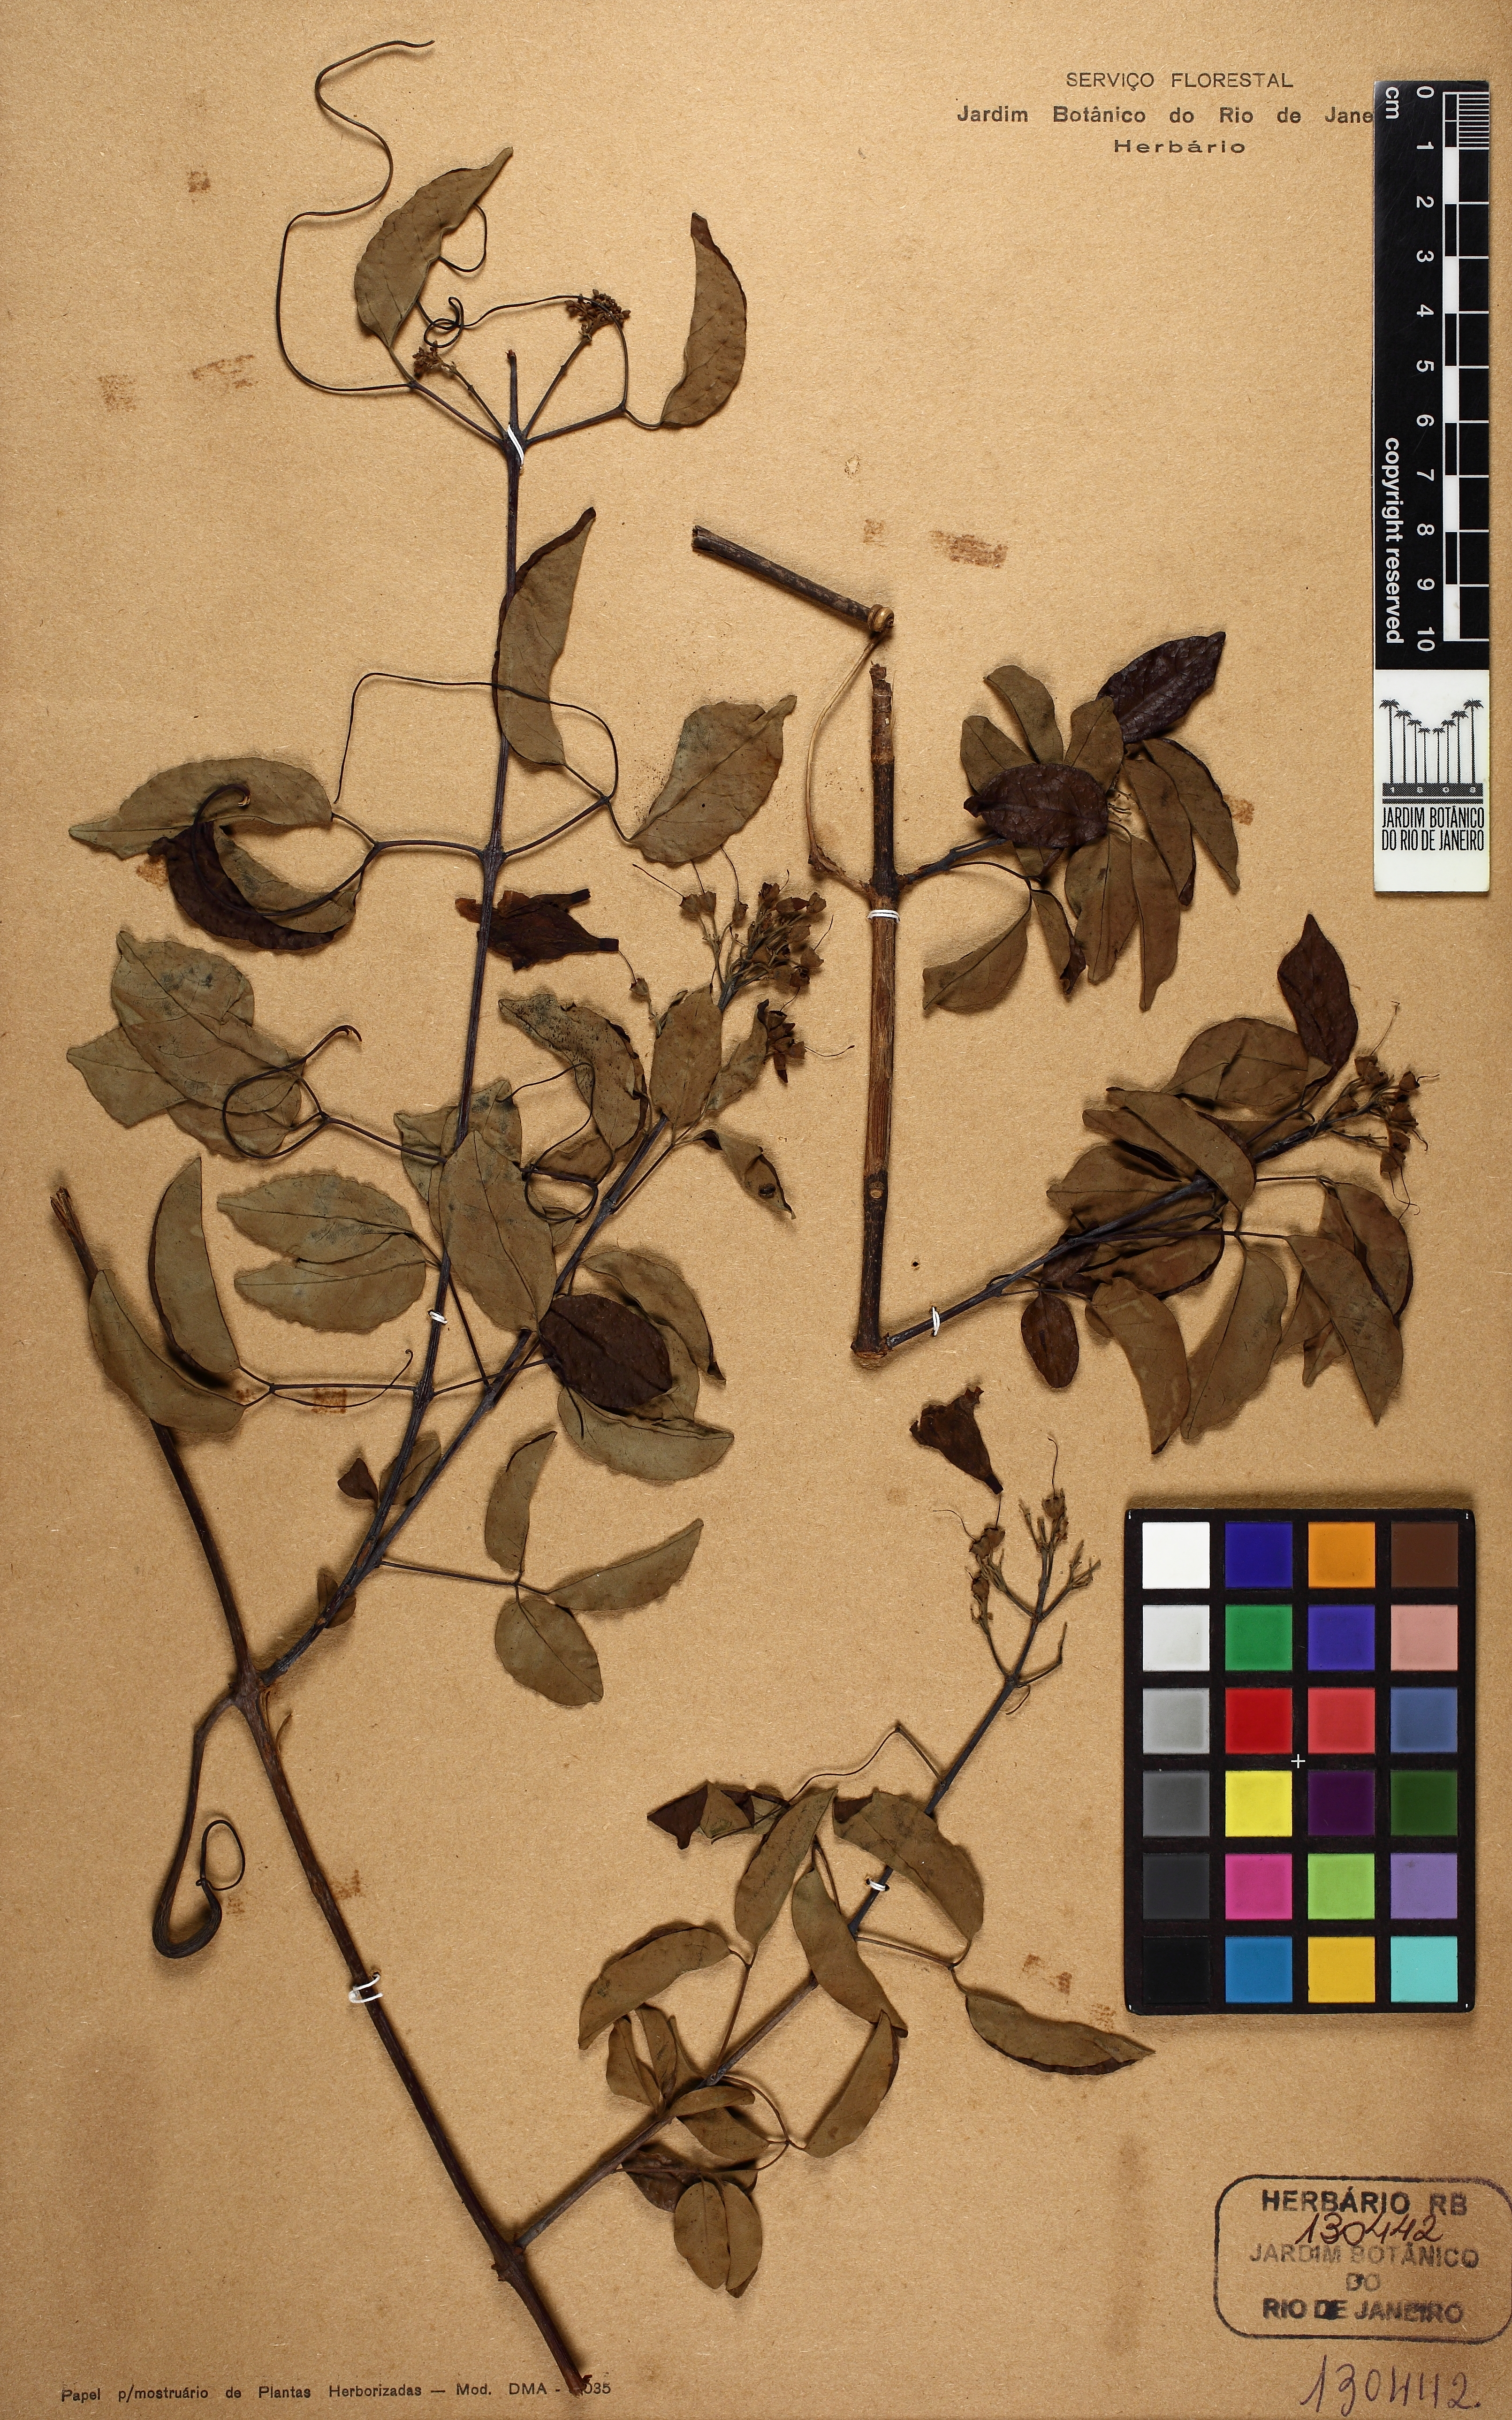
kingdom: Plantae
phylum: Tracheophyta
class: Magnoliopsida
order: Lamiales
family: Bignoniaceae
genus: Fridericia
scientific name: Fridericia cinerea
